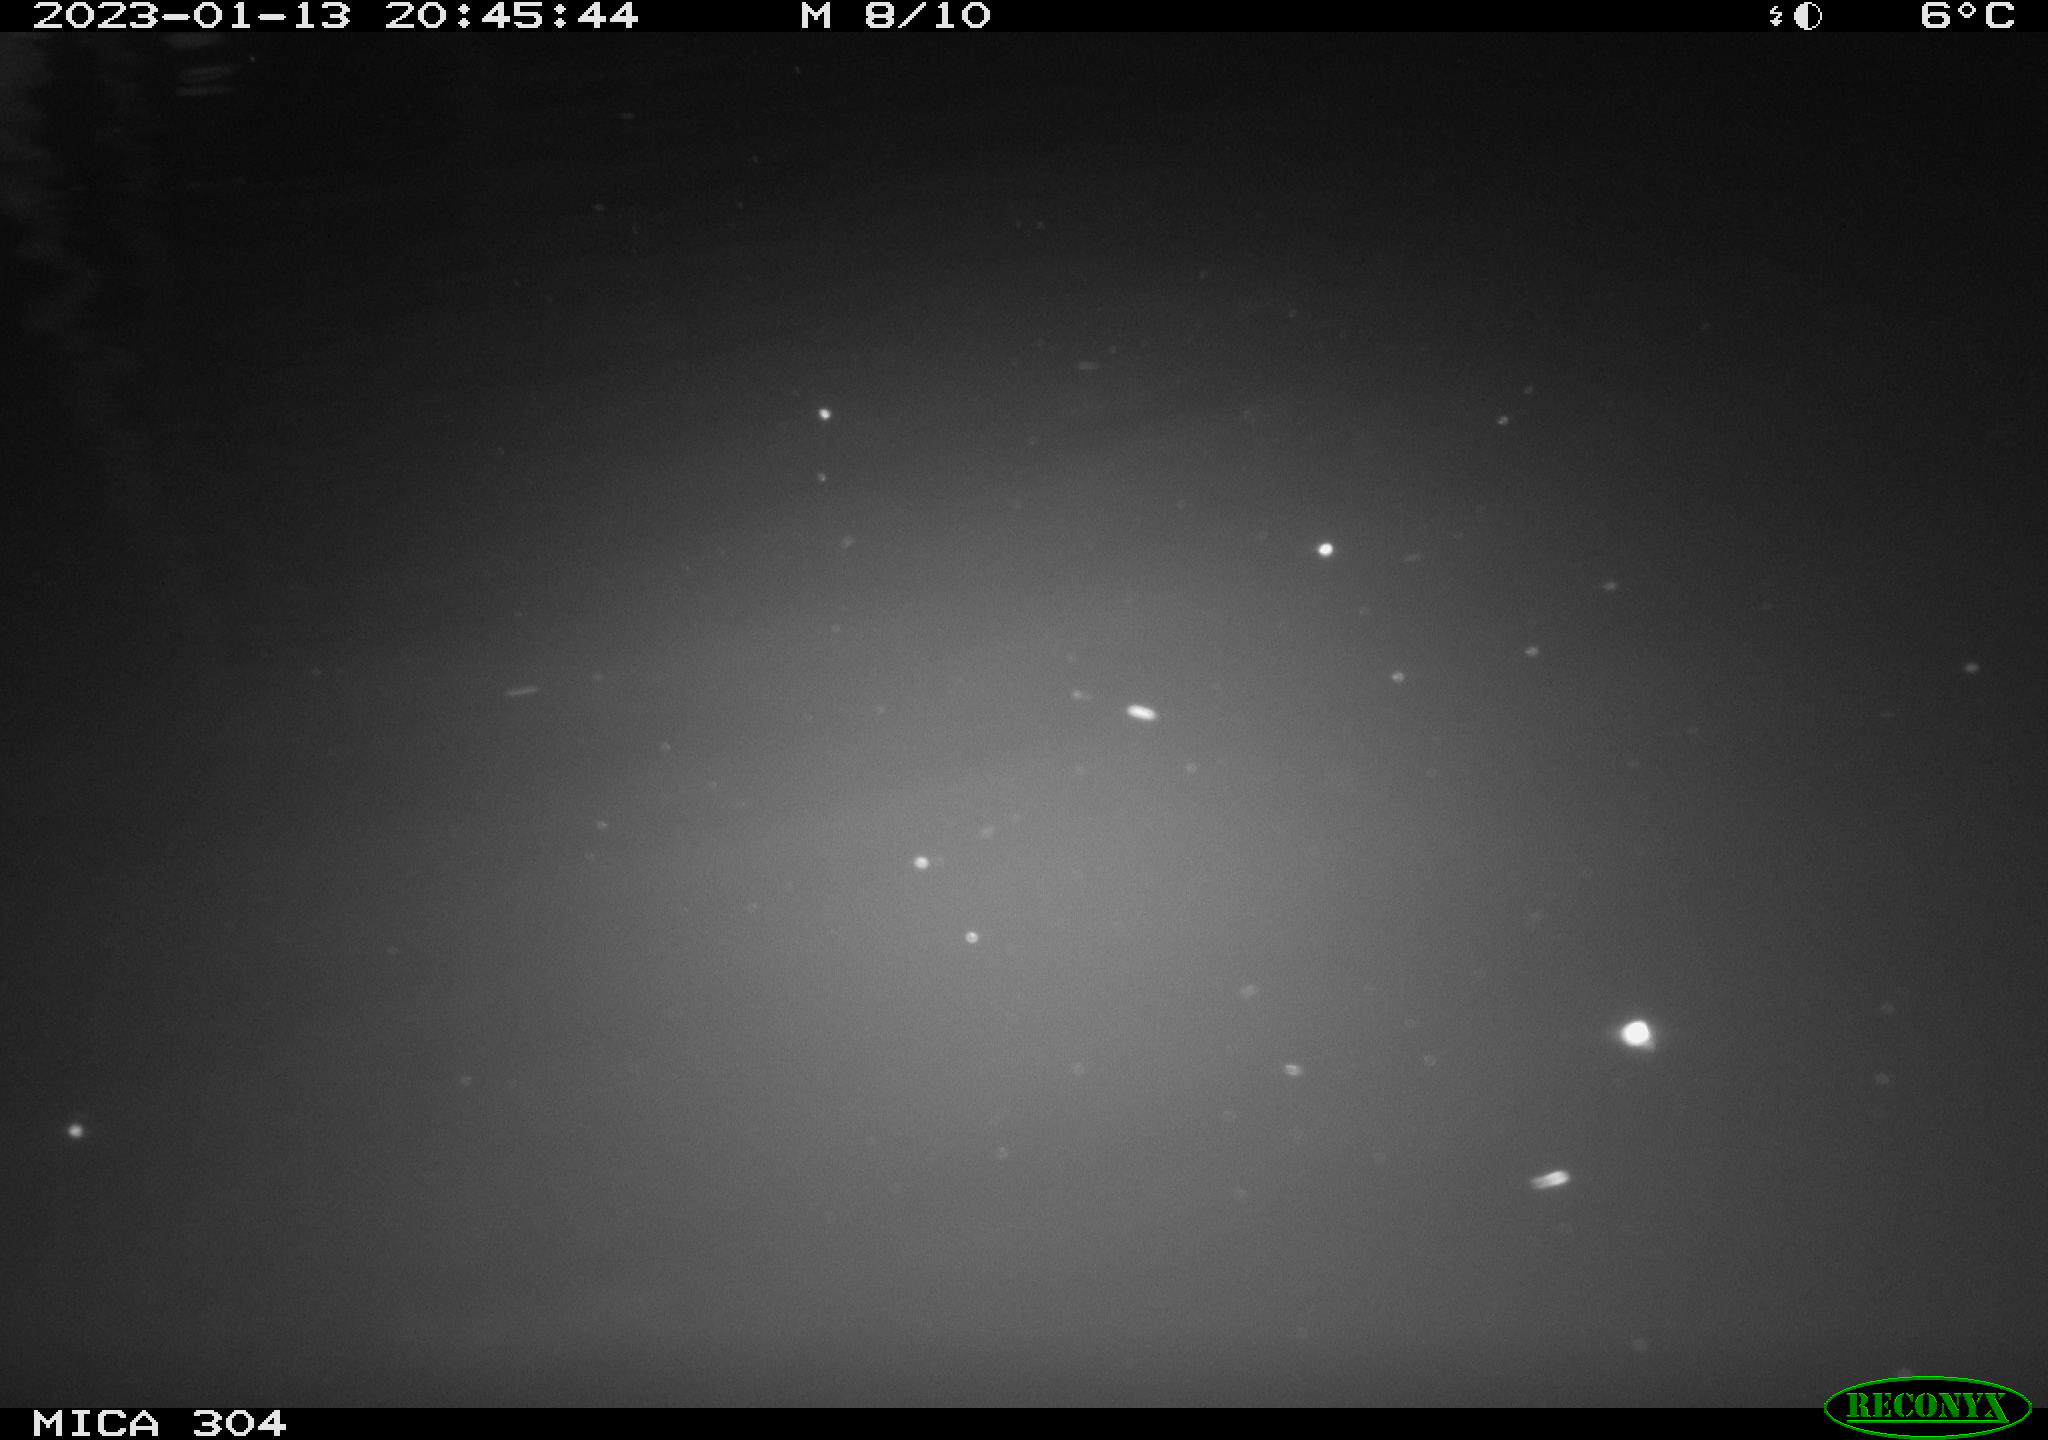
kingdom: Animalia
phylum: Chordata
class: Mammalia
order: Rodentia
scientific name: Rodentia
